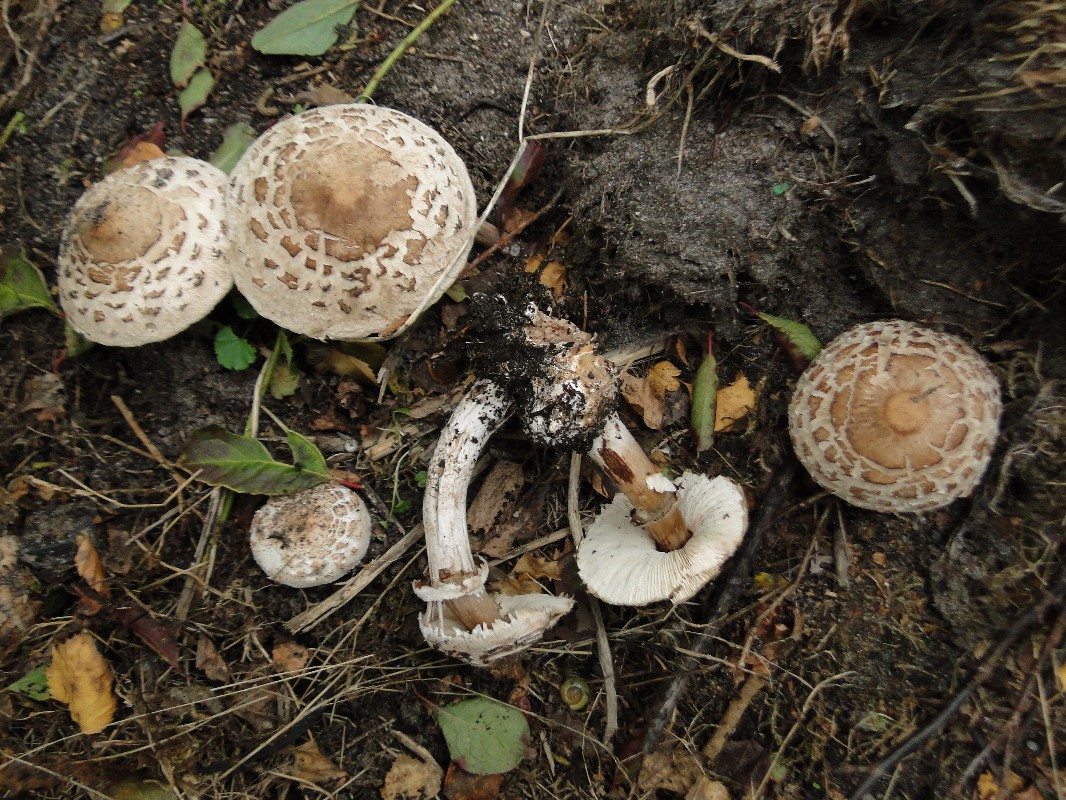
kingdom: Fungi
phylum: Basidiomycota
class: Agaricomycetes
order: Agaricales
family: Agaricaceae
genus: Chlorophyllum
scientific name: Chlorophyllum brunneum
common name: giftig rabarberhat
